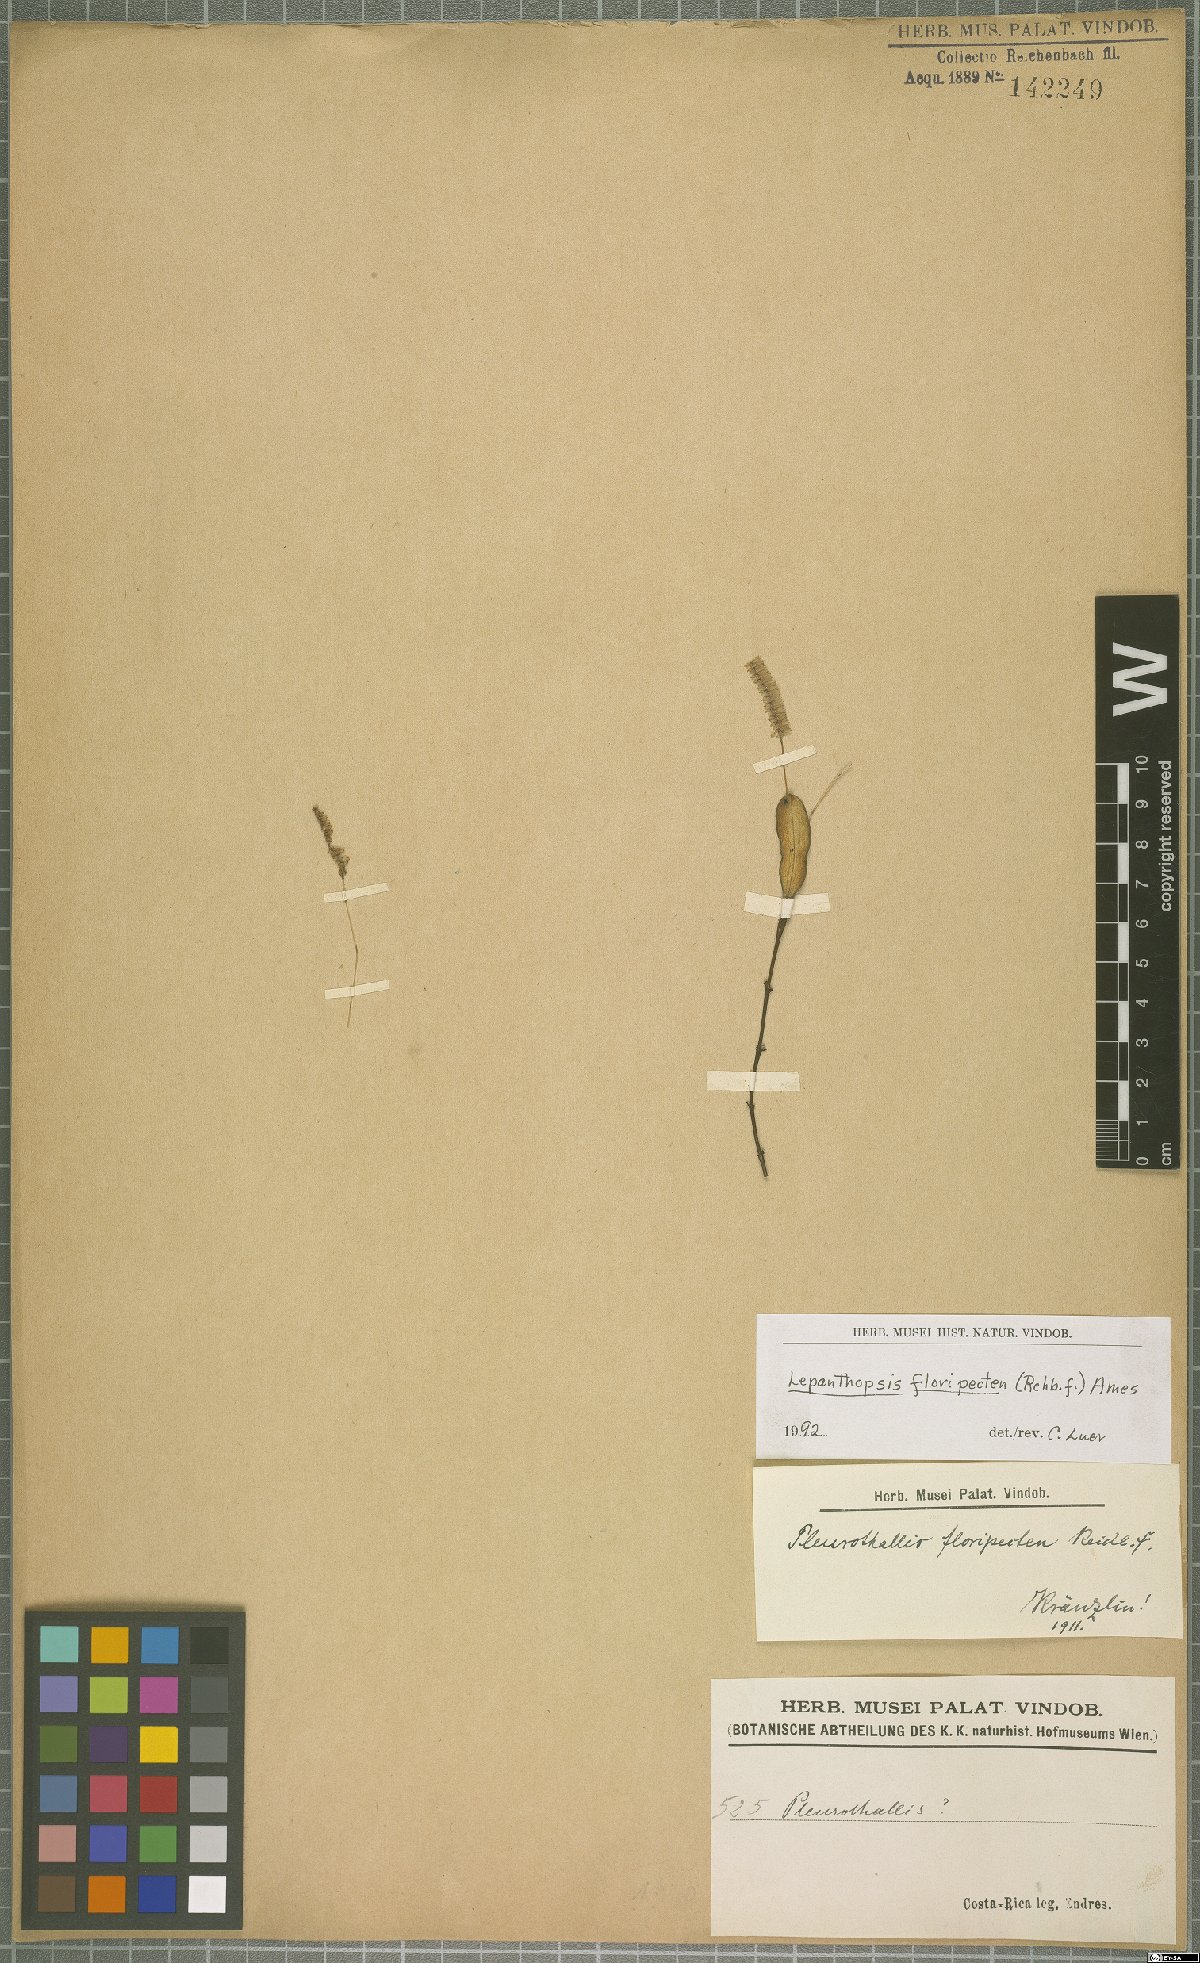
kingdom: Plantae
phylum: Tracheophyta
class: Liliopsida
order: Asparagales
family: Orchidaceae
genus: Lepanthopsis
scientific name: Lepanthopsis floripecten
